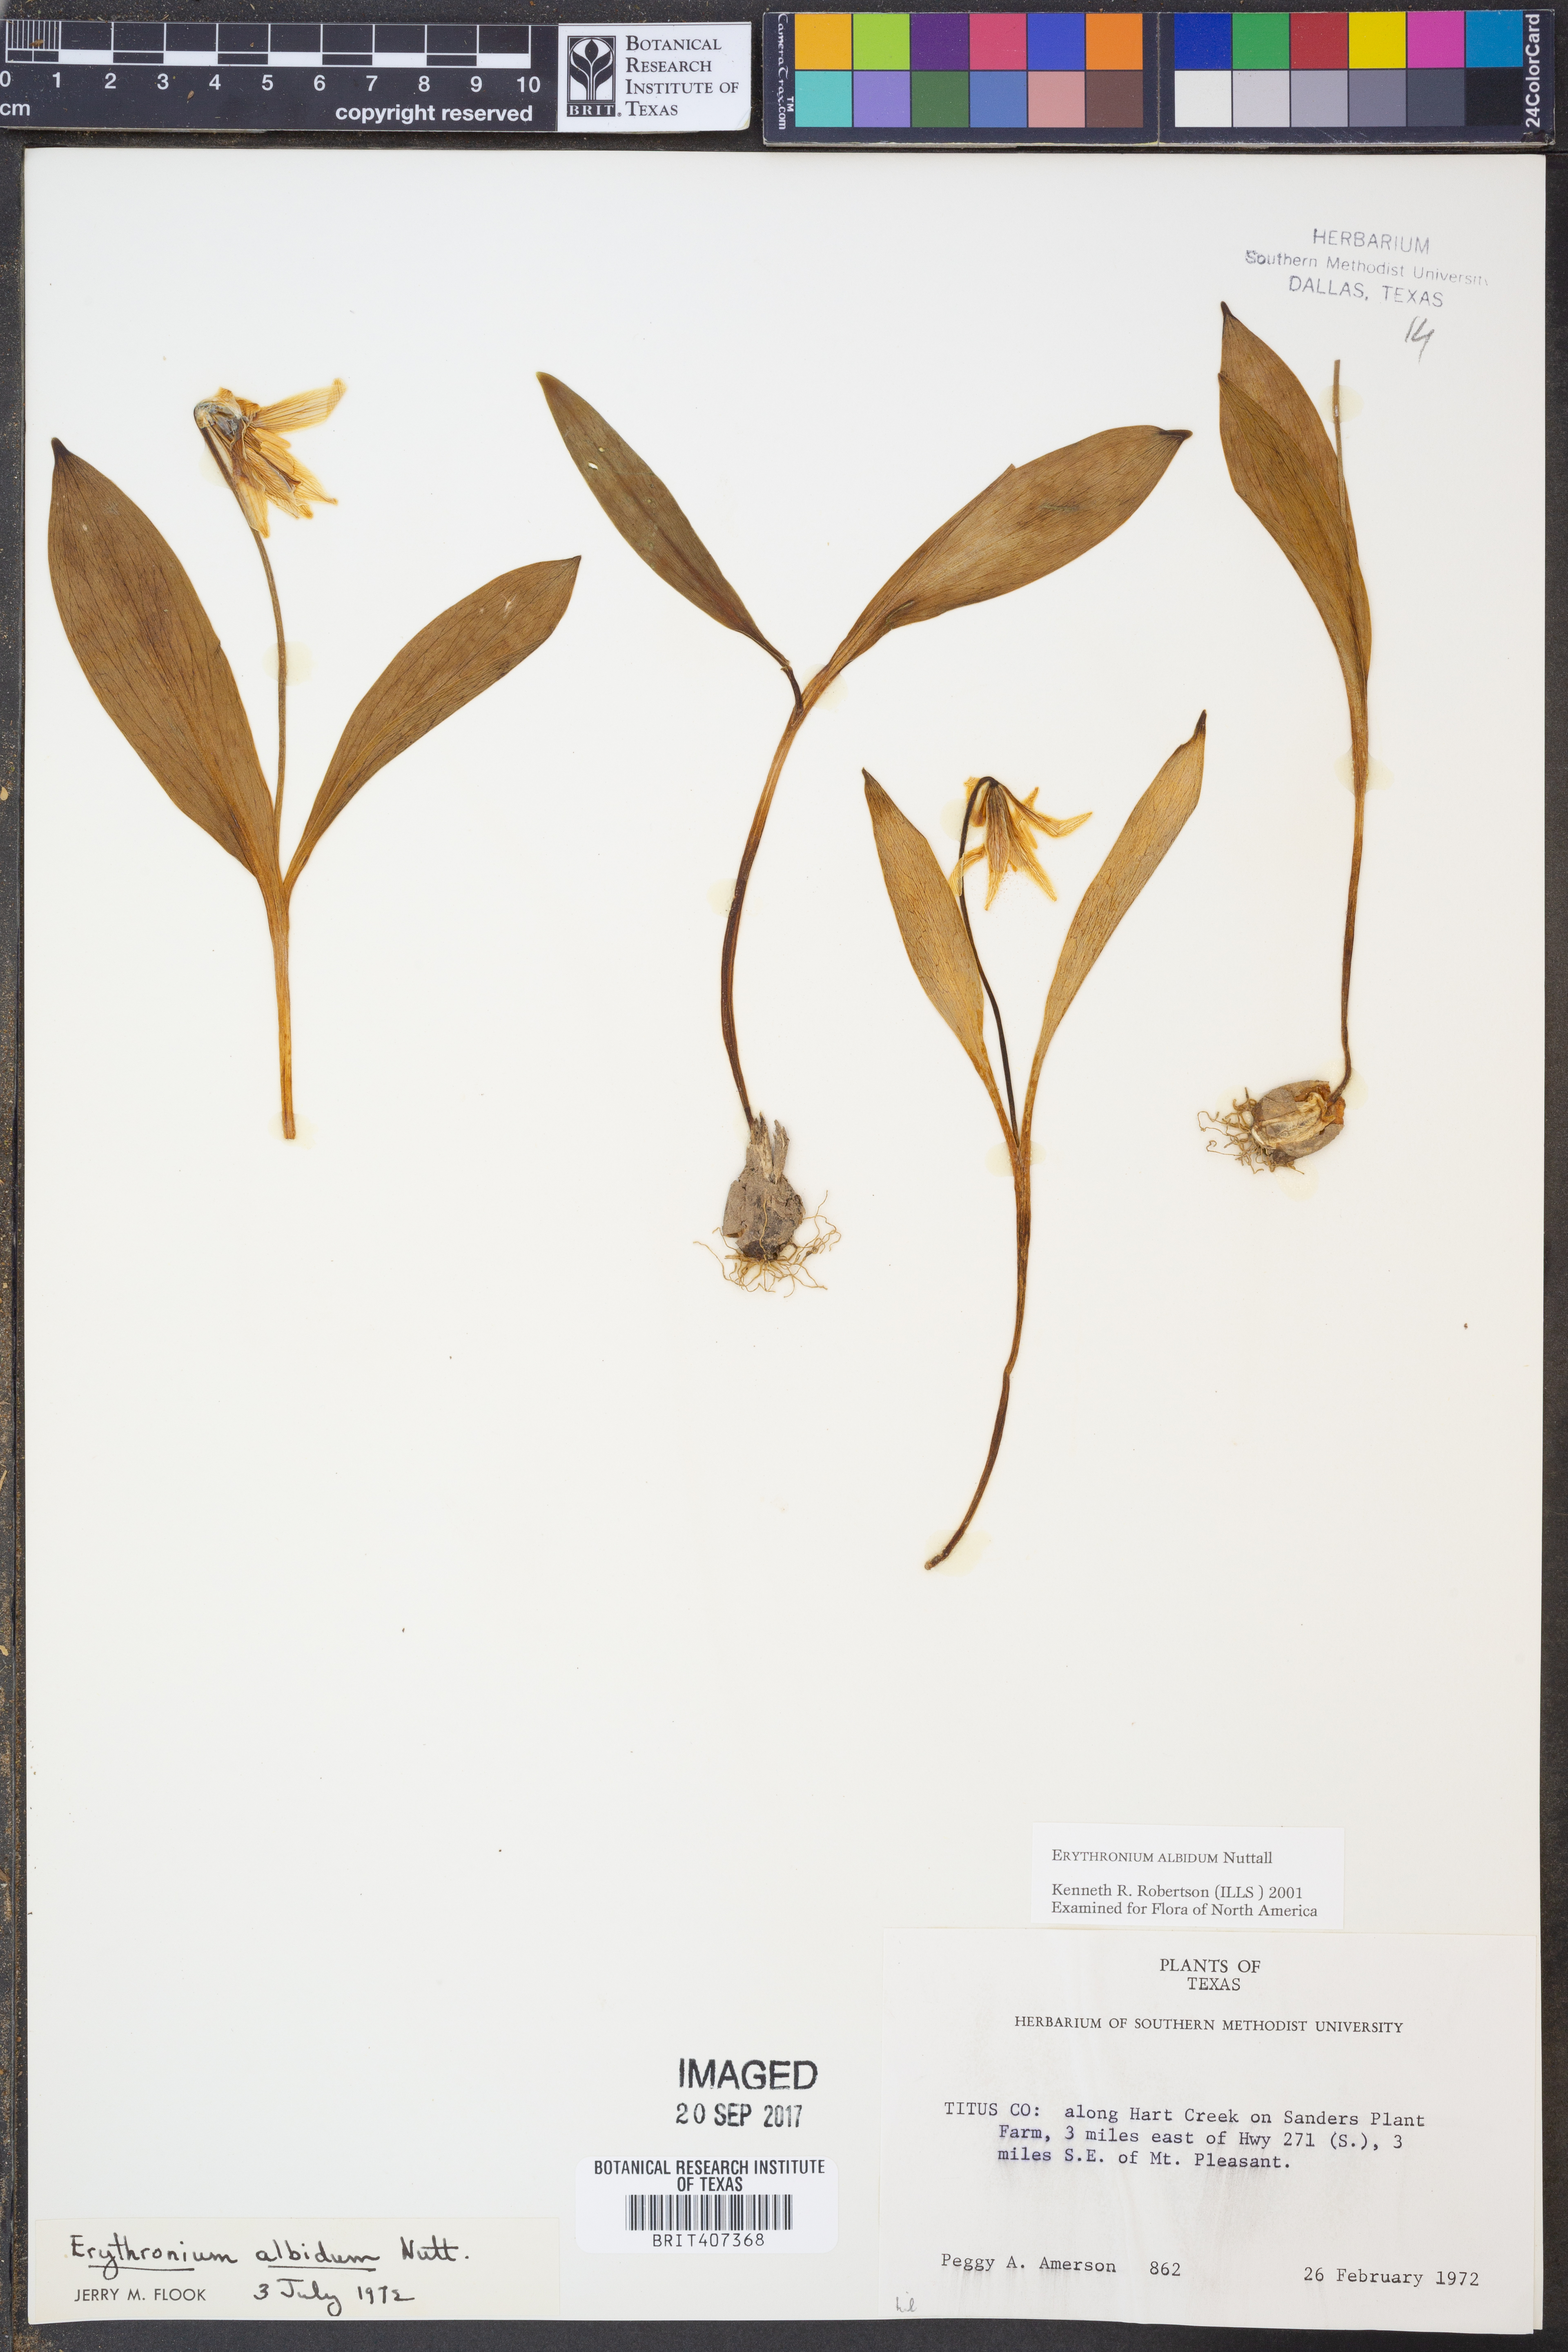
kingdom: Plantae
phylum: Tracheophyta
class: Liliopsida
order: Liliales
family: Liliaceae
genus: Erythronium
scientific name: Erythronium albidum
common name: White trout-lily
